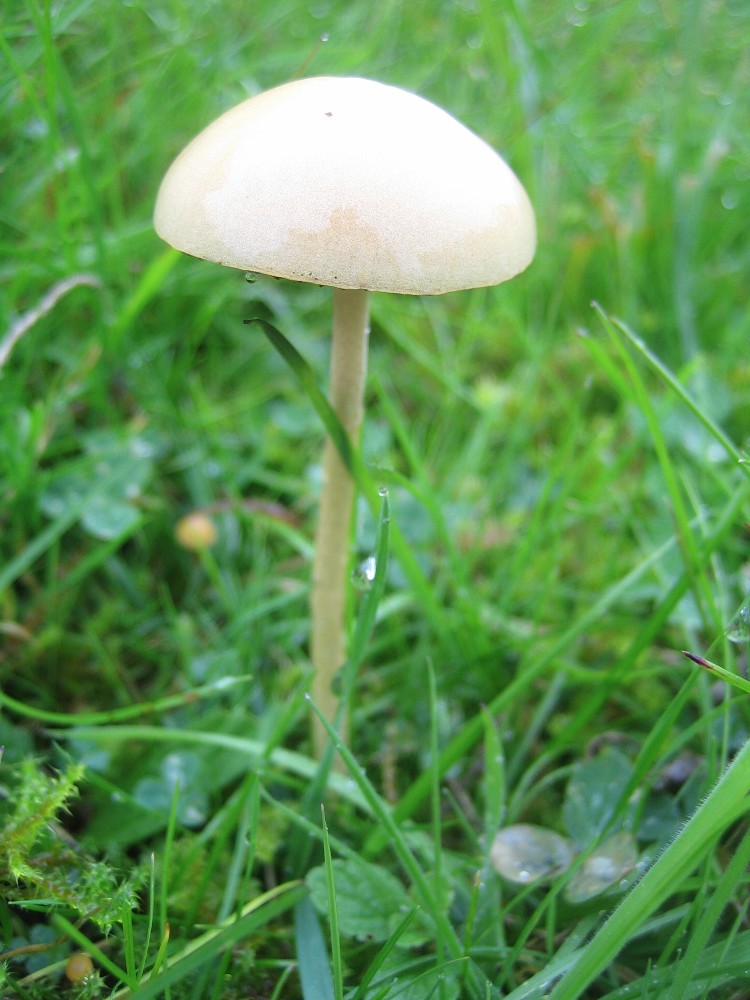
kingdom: Fungi
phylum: Basidiomycota
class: Agaricomycetes
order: Agaricales
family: Strophariaceae
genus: Protostropharia
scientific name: Protostropharia semiglobata
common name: halvkugleformet bredblad
